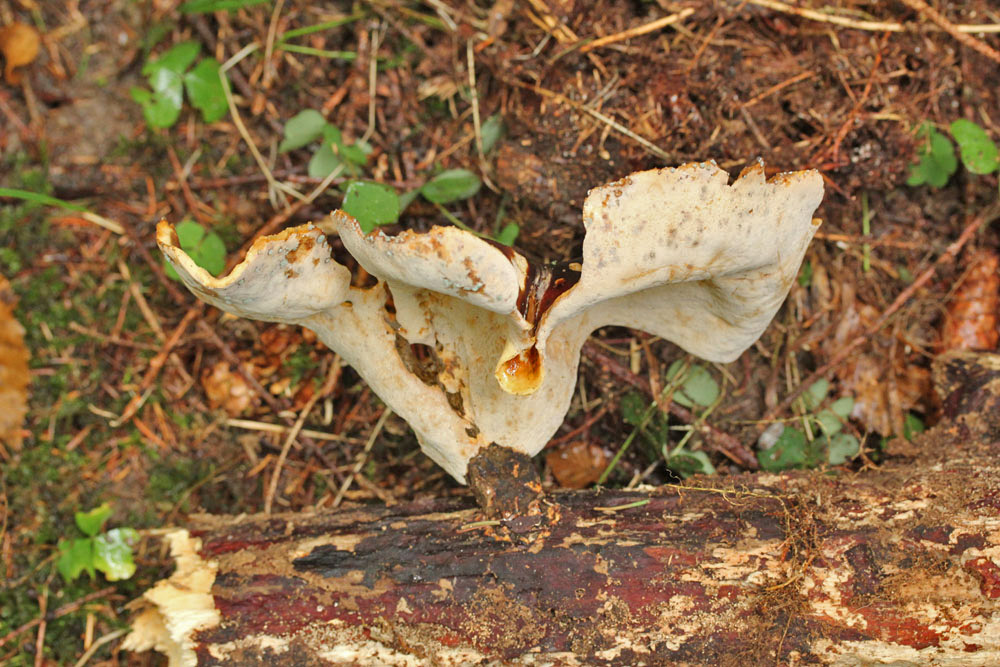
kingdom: Fungi
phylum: Basidiomycota
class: Agaricomycetes
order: Polyporales
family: Polyporaceae
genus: Picipes
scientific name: Picipes badius
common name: kastaniebrun stilkporesvamp
